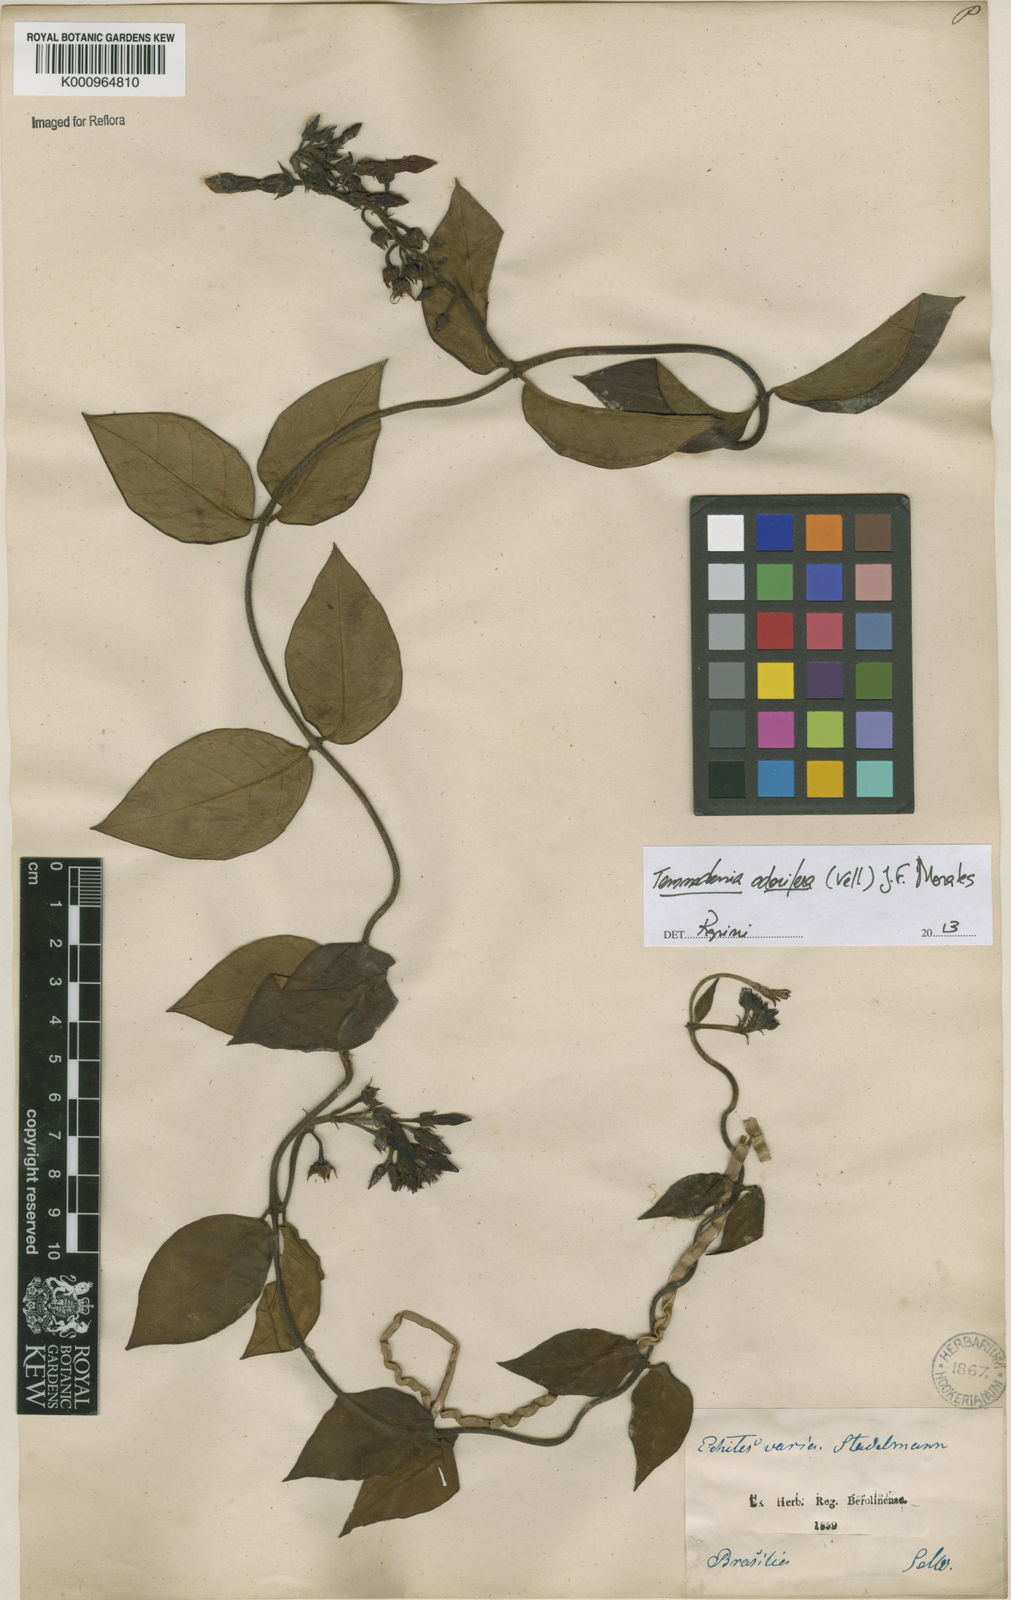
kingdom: Plantae
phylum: Tracheophyta
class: Magnoliopsida
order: Gentianales
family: Apocynaceae
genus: Temnadenia
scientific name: Temnadenia odorifera
